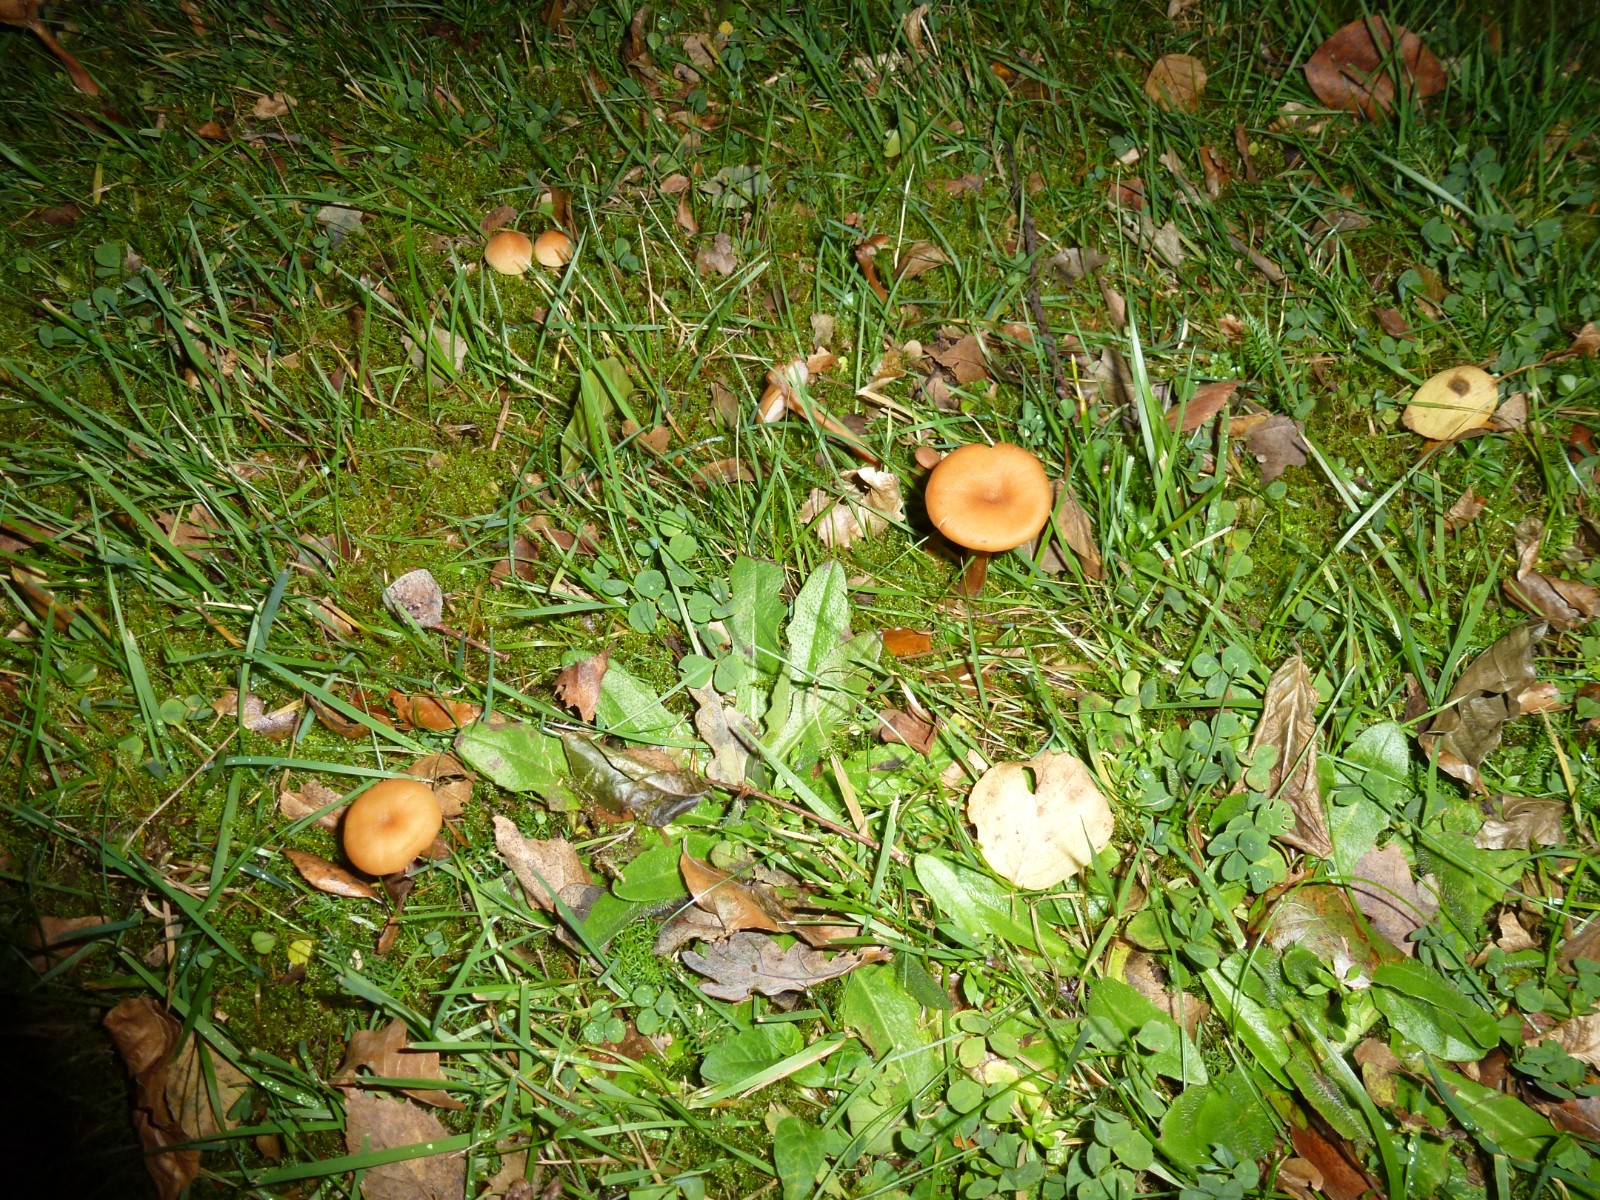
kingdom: Fungi
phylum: Basidiomycota
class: Agaricomycetes
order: Agaricales
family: Hydnangiaceae
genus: Laccaria
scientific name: Laccaria laccata
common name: rød ametysthat
